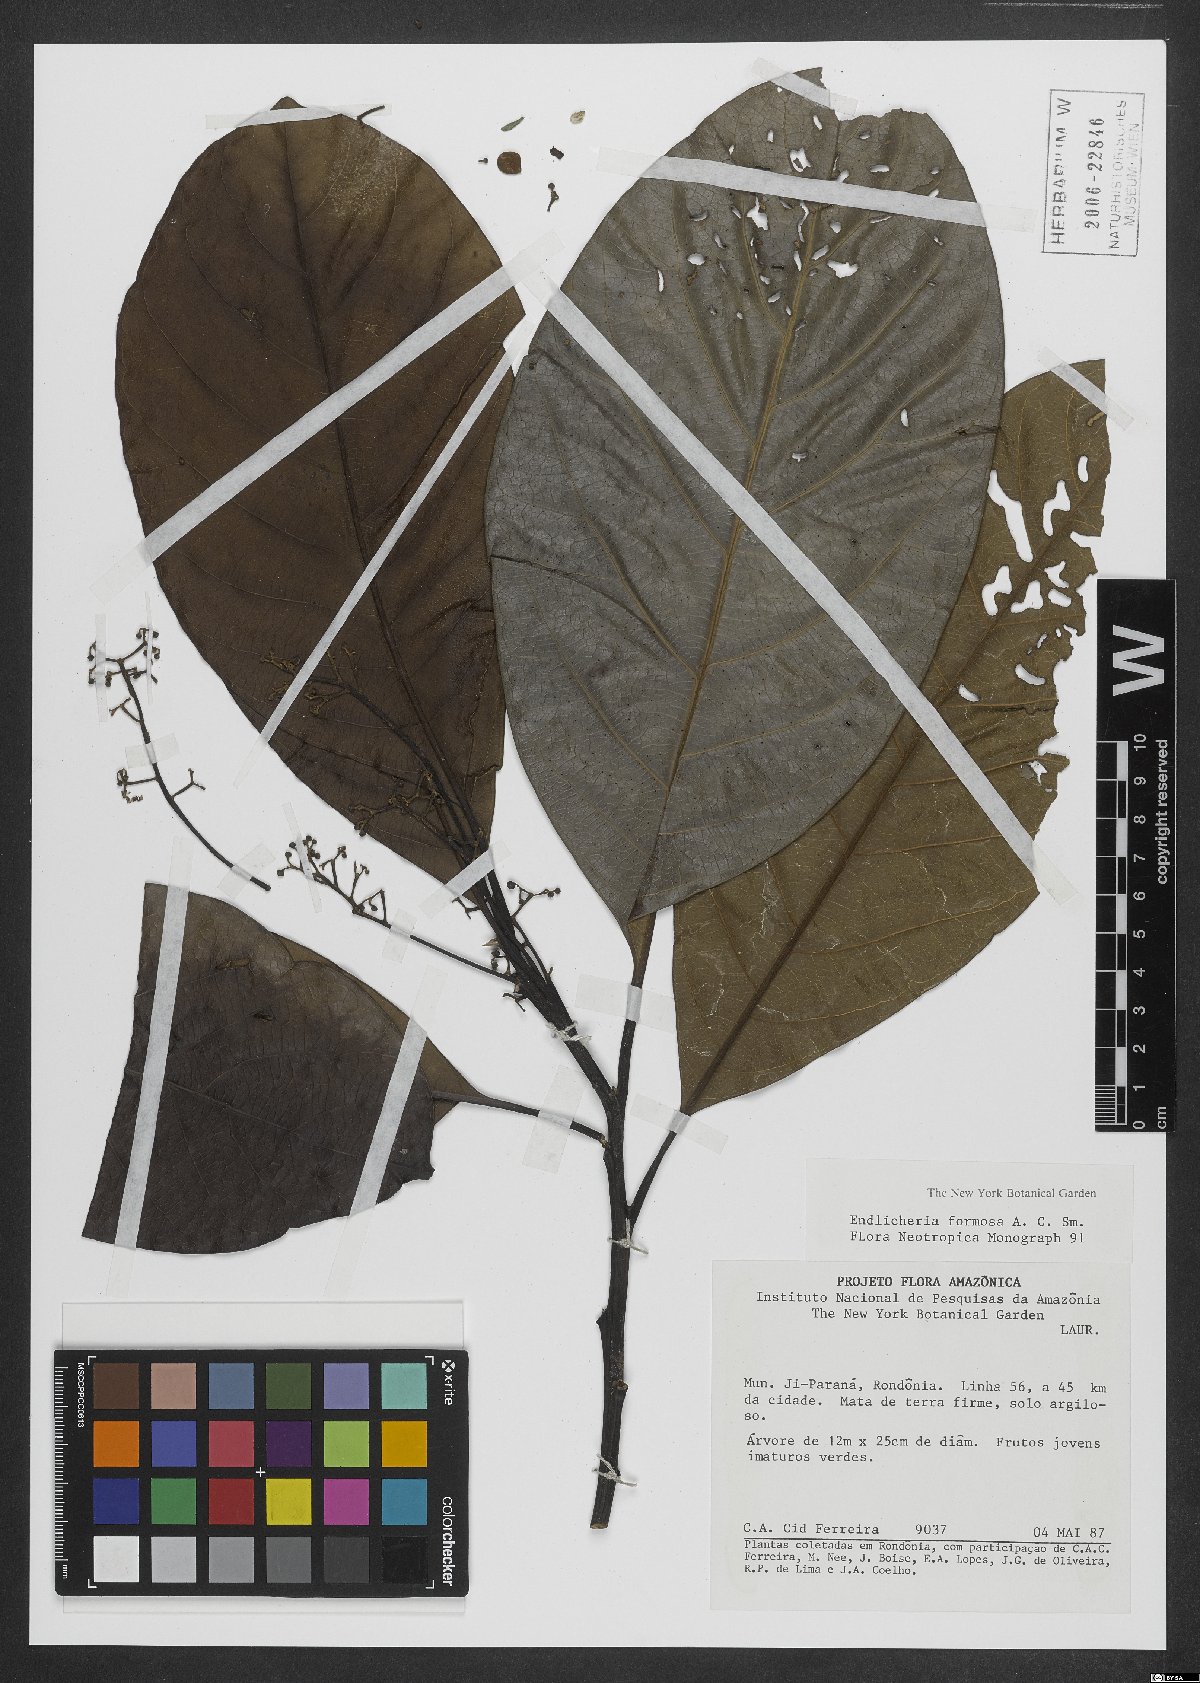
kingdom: Plantae
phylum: Tracheophyta
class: Magnoliopsida
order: Laurales
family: Lauraceae
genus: Endlicheria
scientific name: Endlicheria formosa
